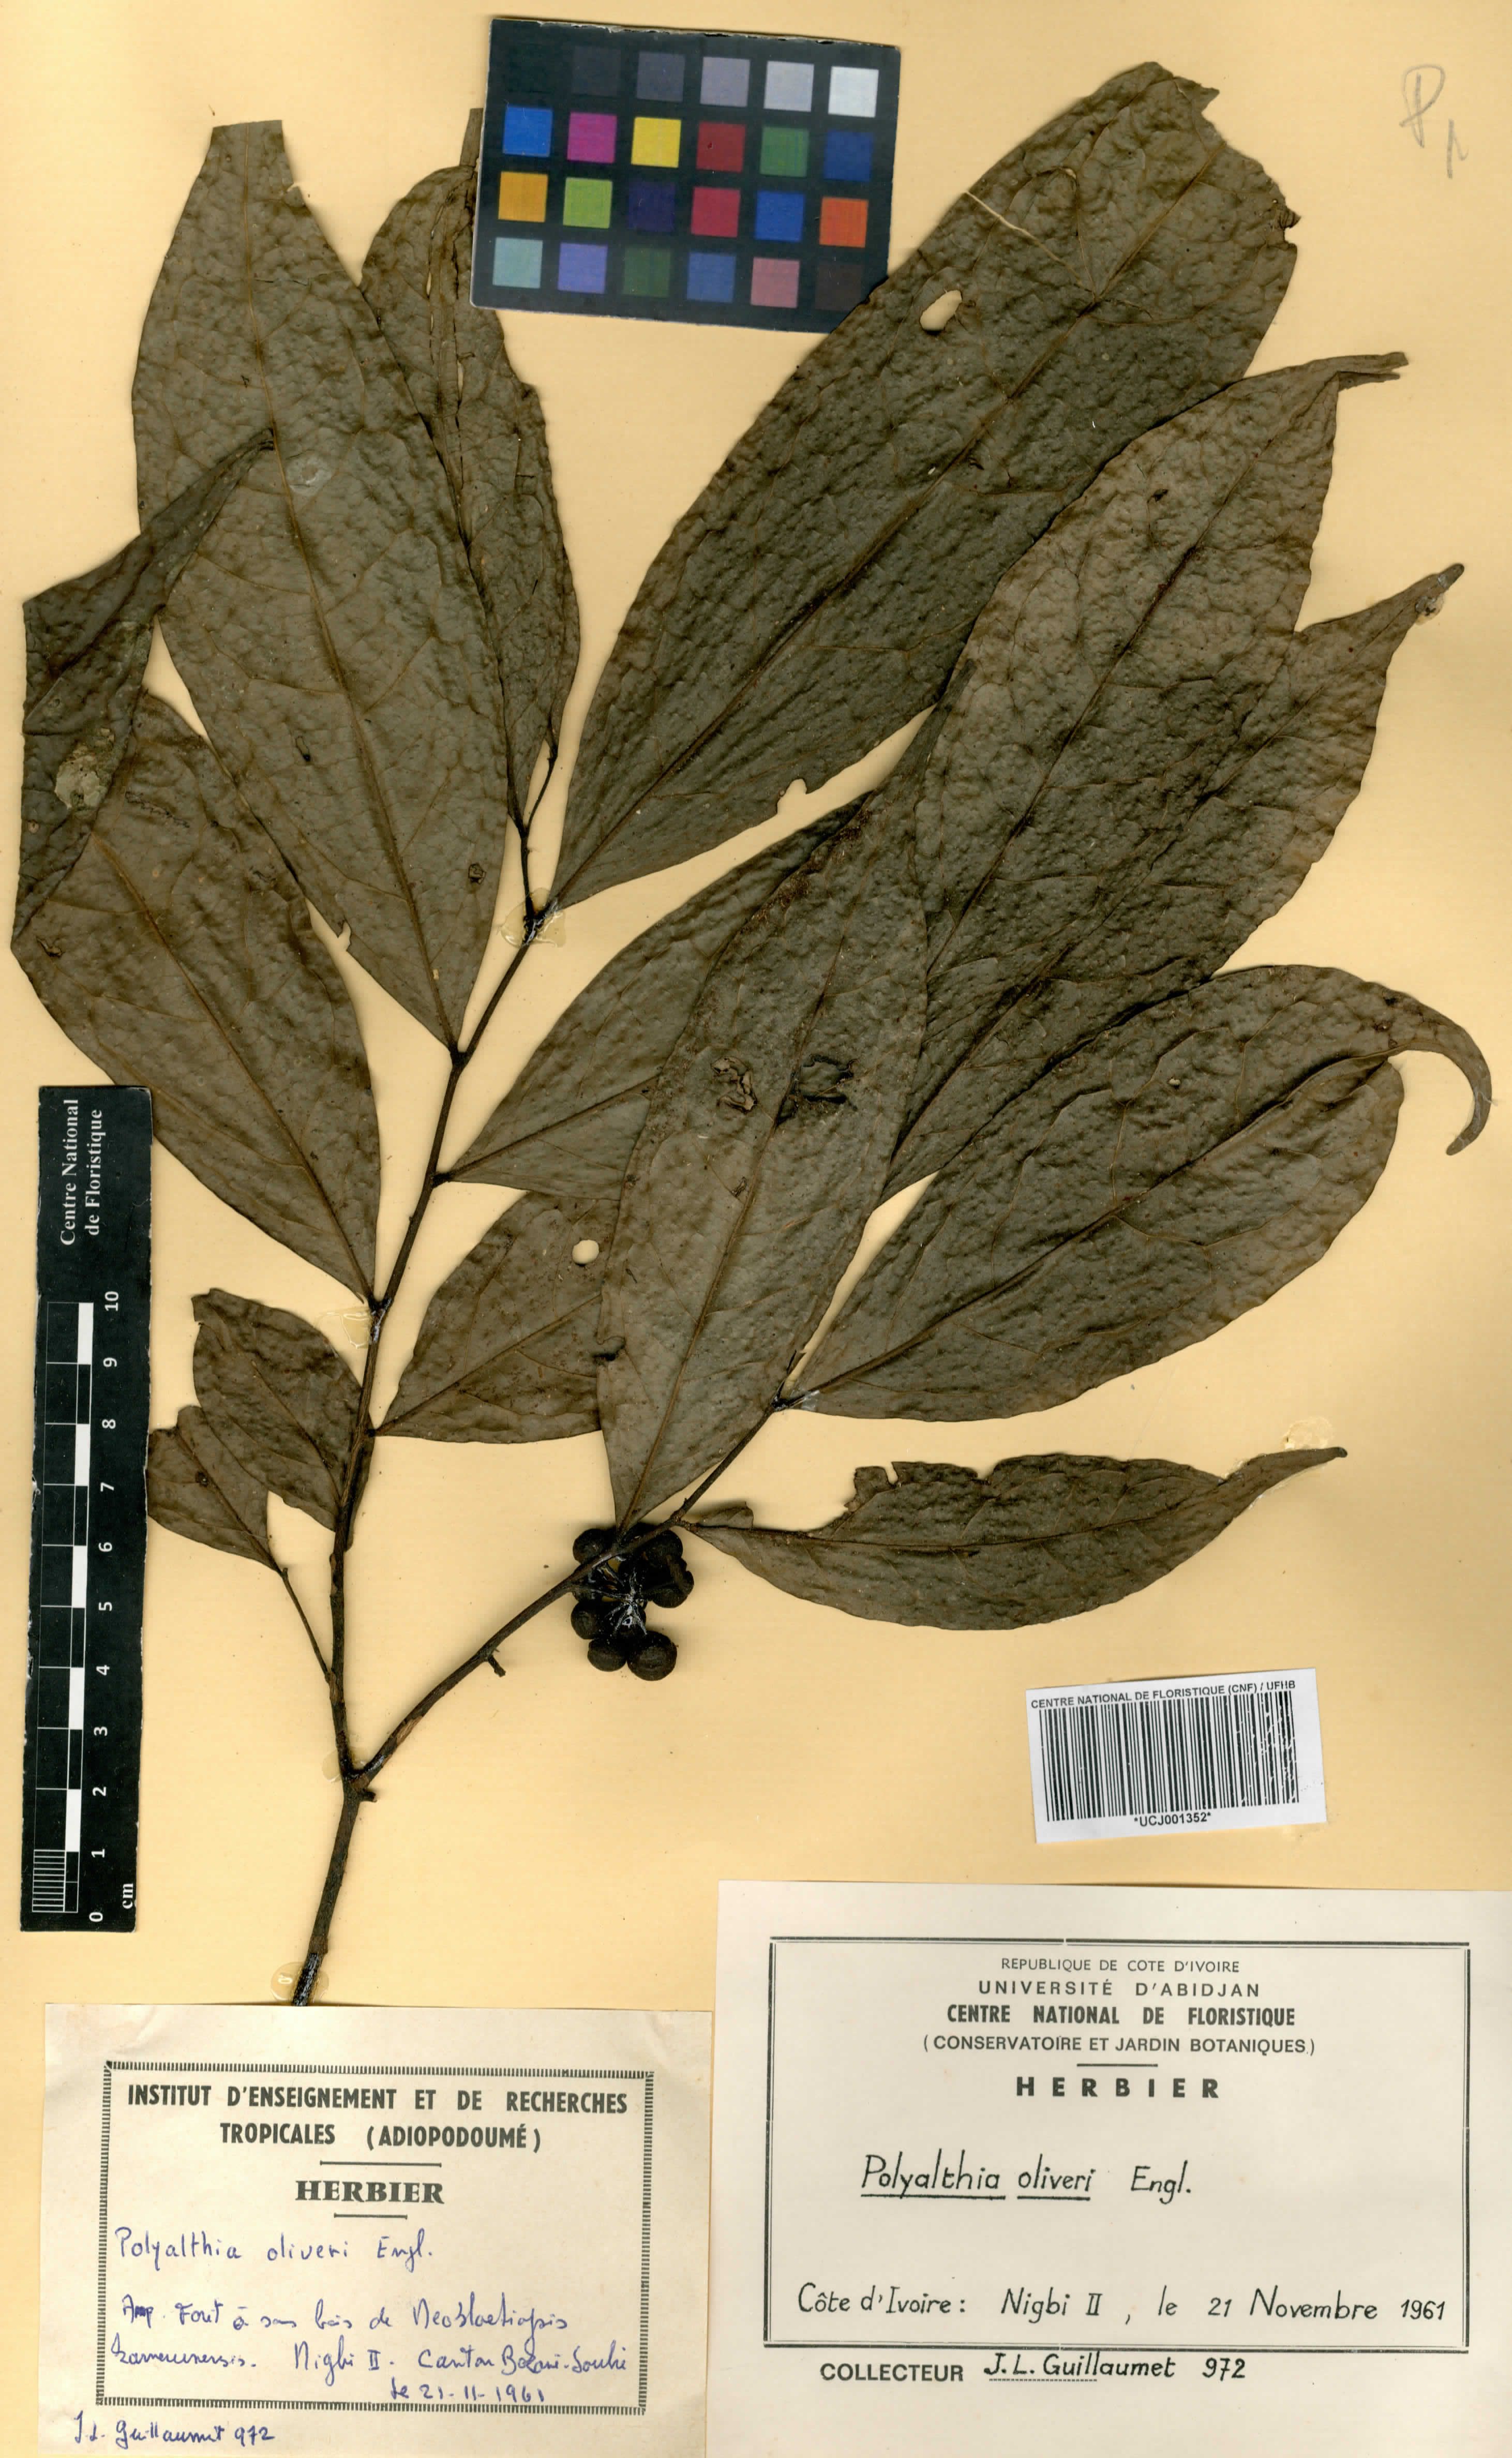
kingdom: Plantae
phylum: Tracheophyta
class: Magnoliopsida
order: Magnoliales
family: Annonaceae
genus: Greenwayodendron
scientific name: Greenwayodendron oliveri
